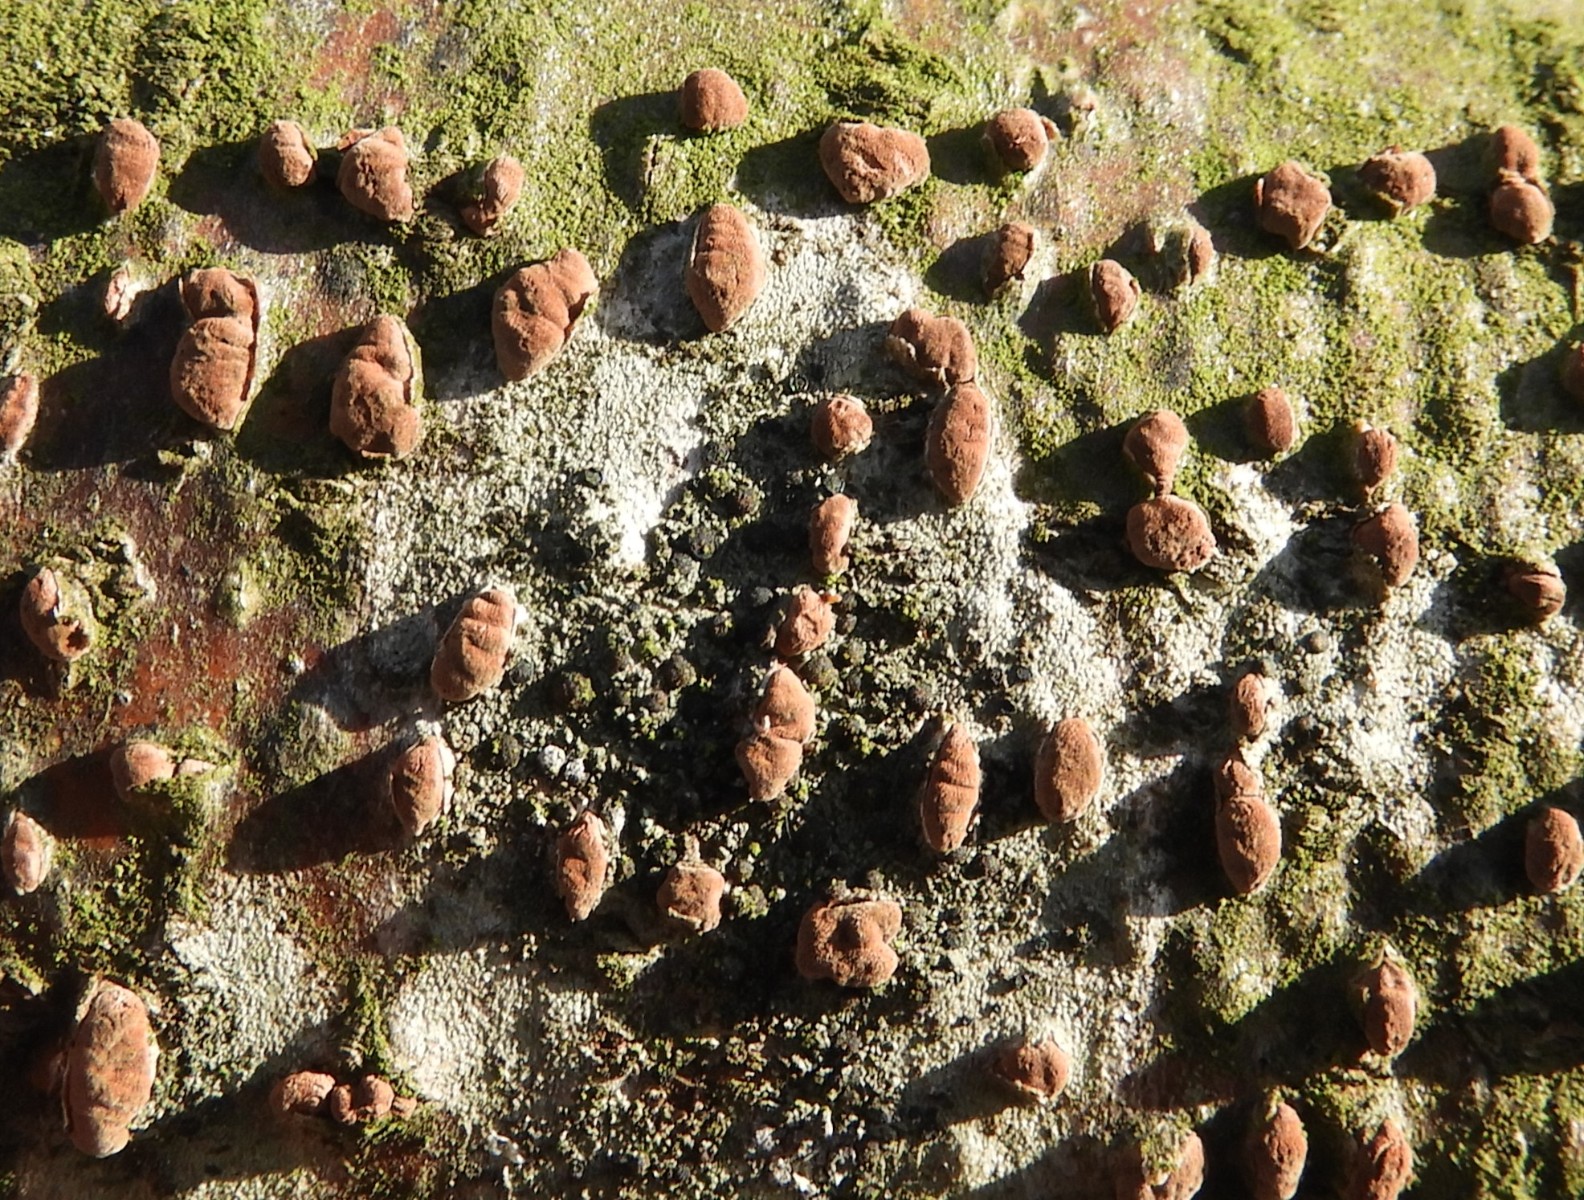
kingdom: Fungi
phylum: Ascomycota
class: Sordariomycetes
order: Xylariales
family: Hypoxylaceae
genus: Hypoxylon
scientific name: Hypoxylon fragiforme
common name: kuljordbær
